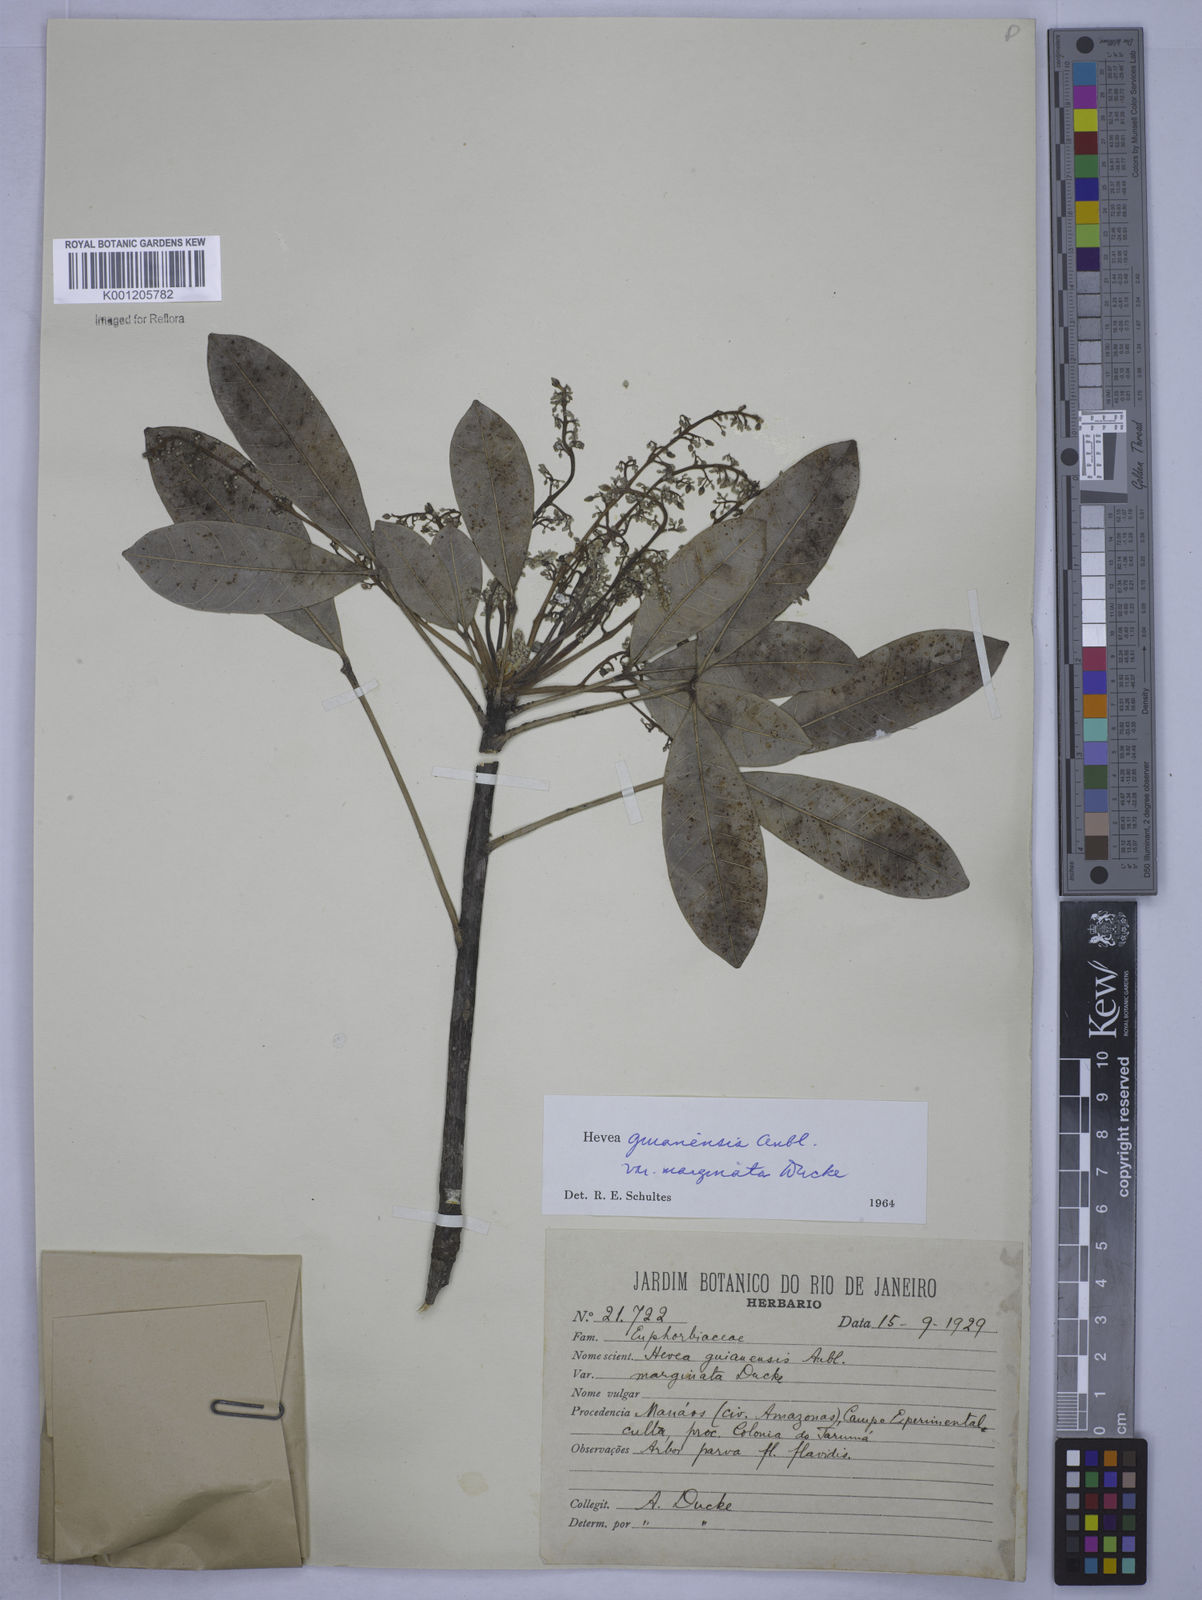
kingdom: Plantae
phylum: Tracheophyta
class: Magnoliopsida
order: Malpighiales
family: Euphorbiaceae
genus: Hevea
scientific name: Hevea guianensis
